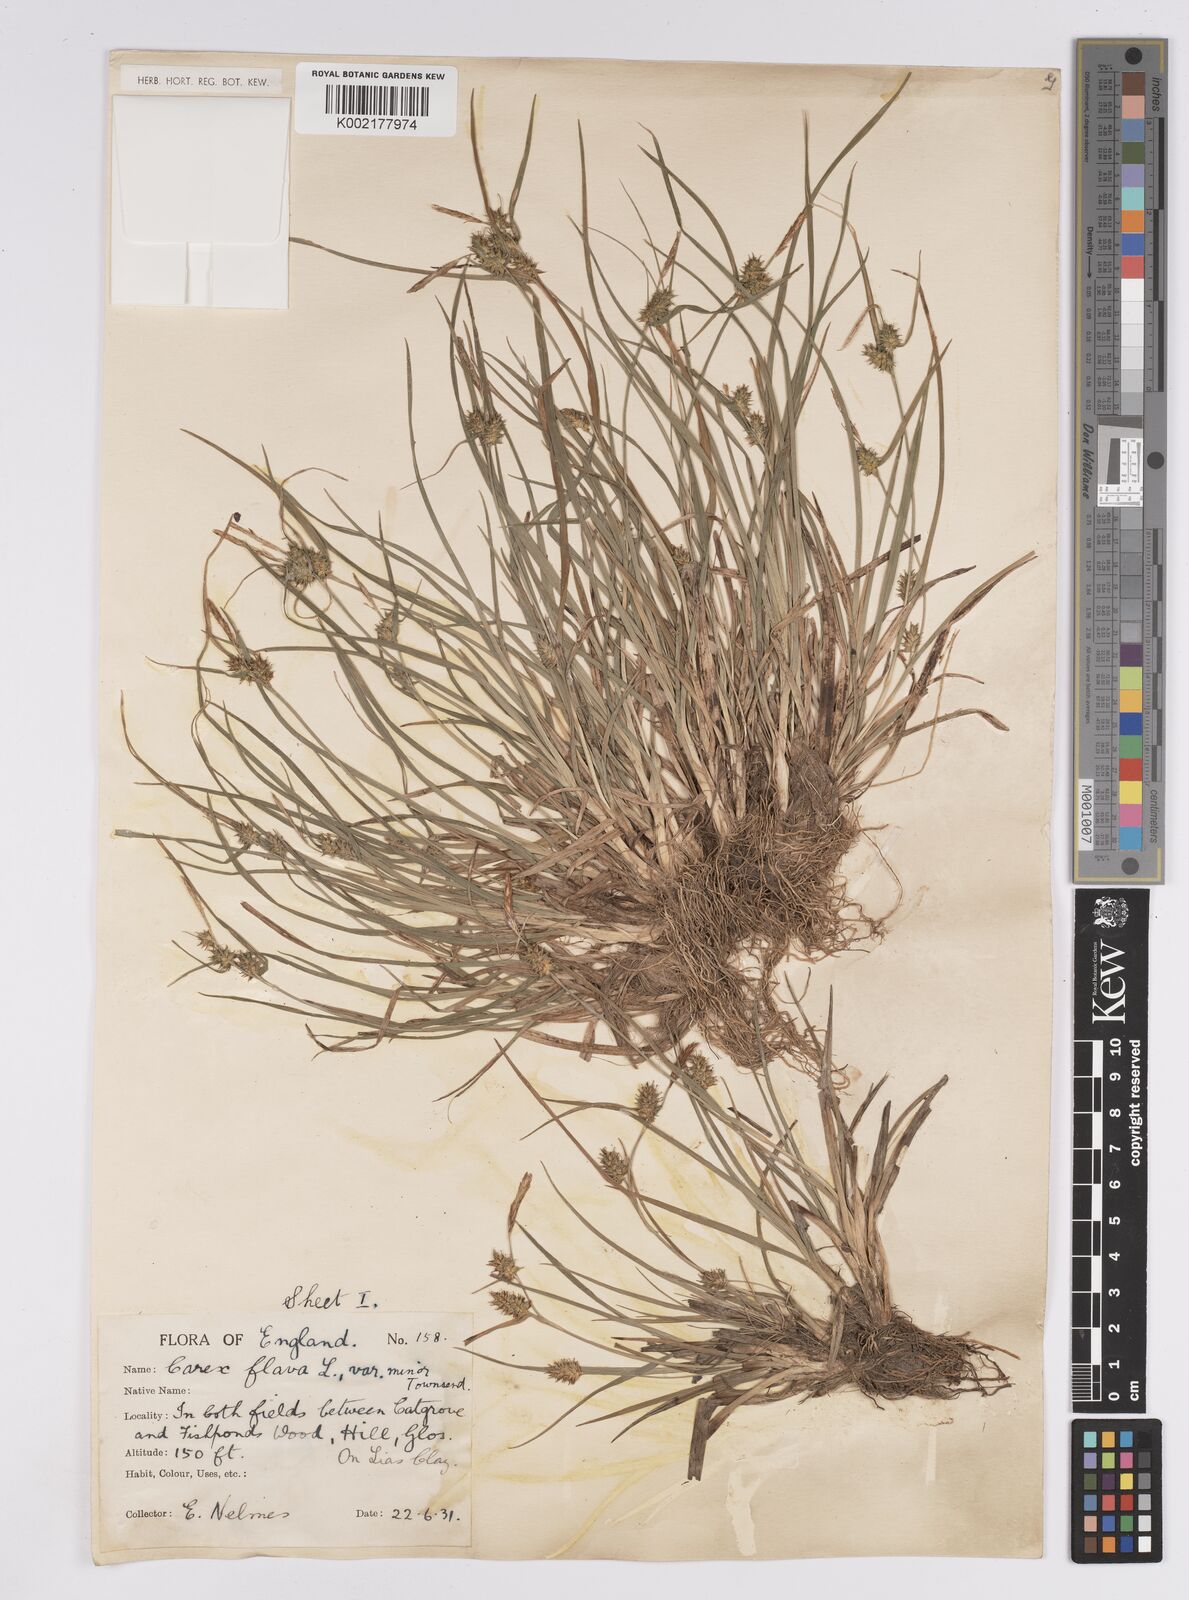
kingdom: Plantae
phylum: Tracheophyta
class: Liliopsida
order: Poales
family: Cyperaceae
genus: Carex
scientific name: Carex demissa
